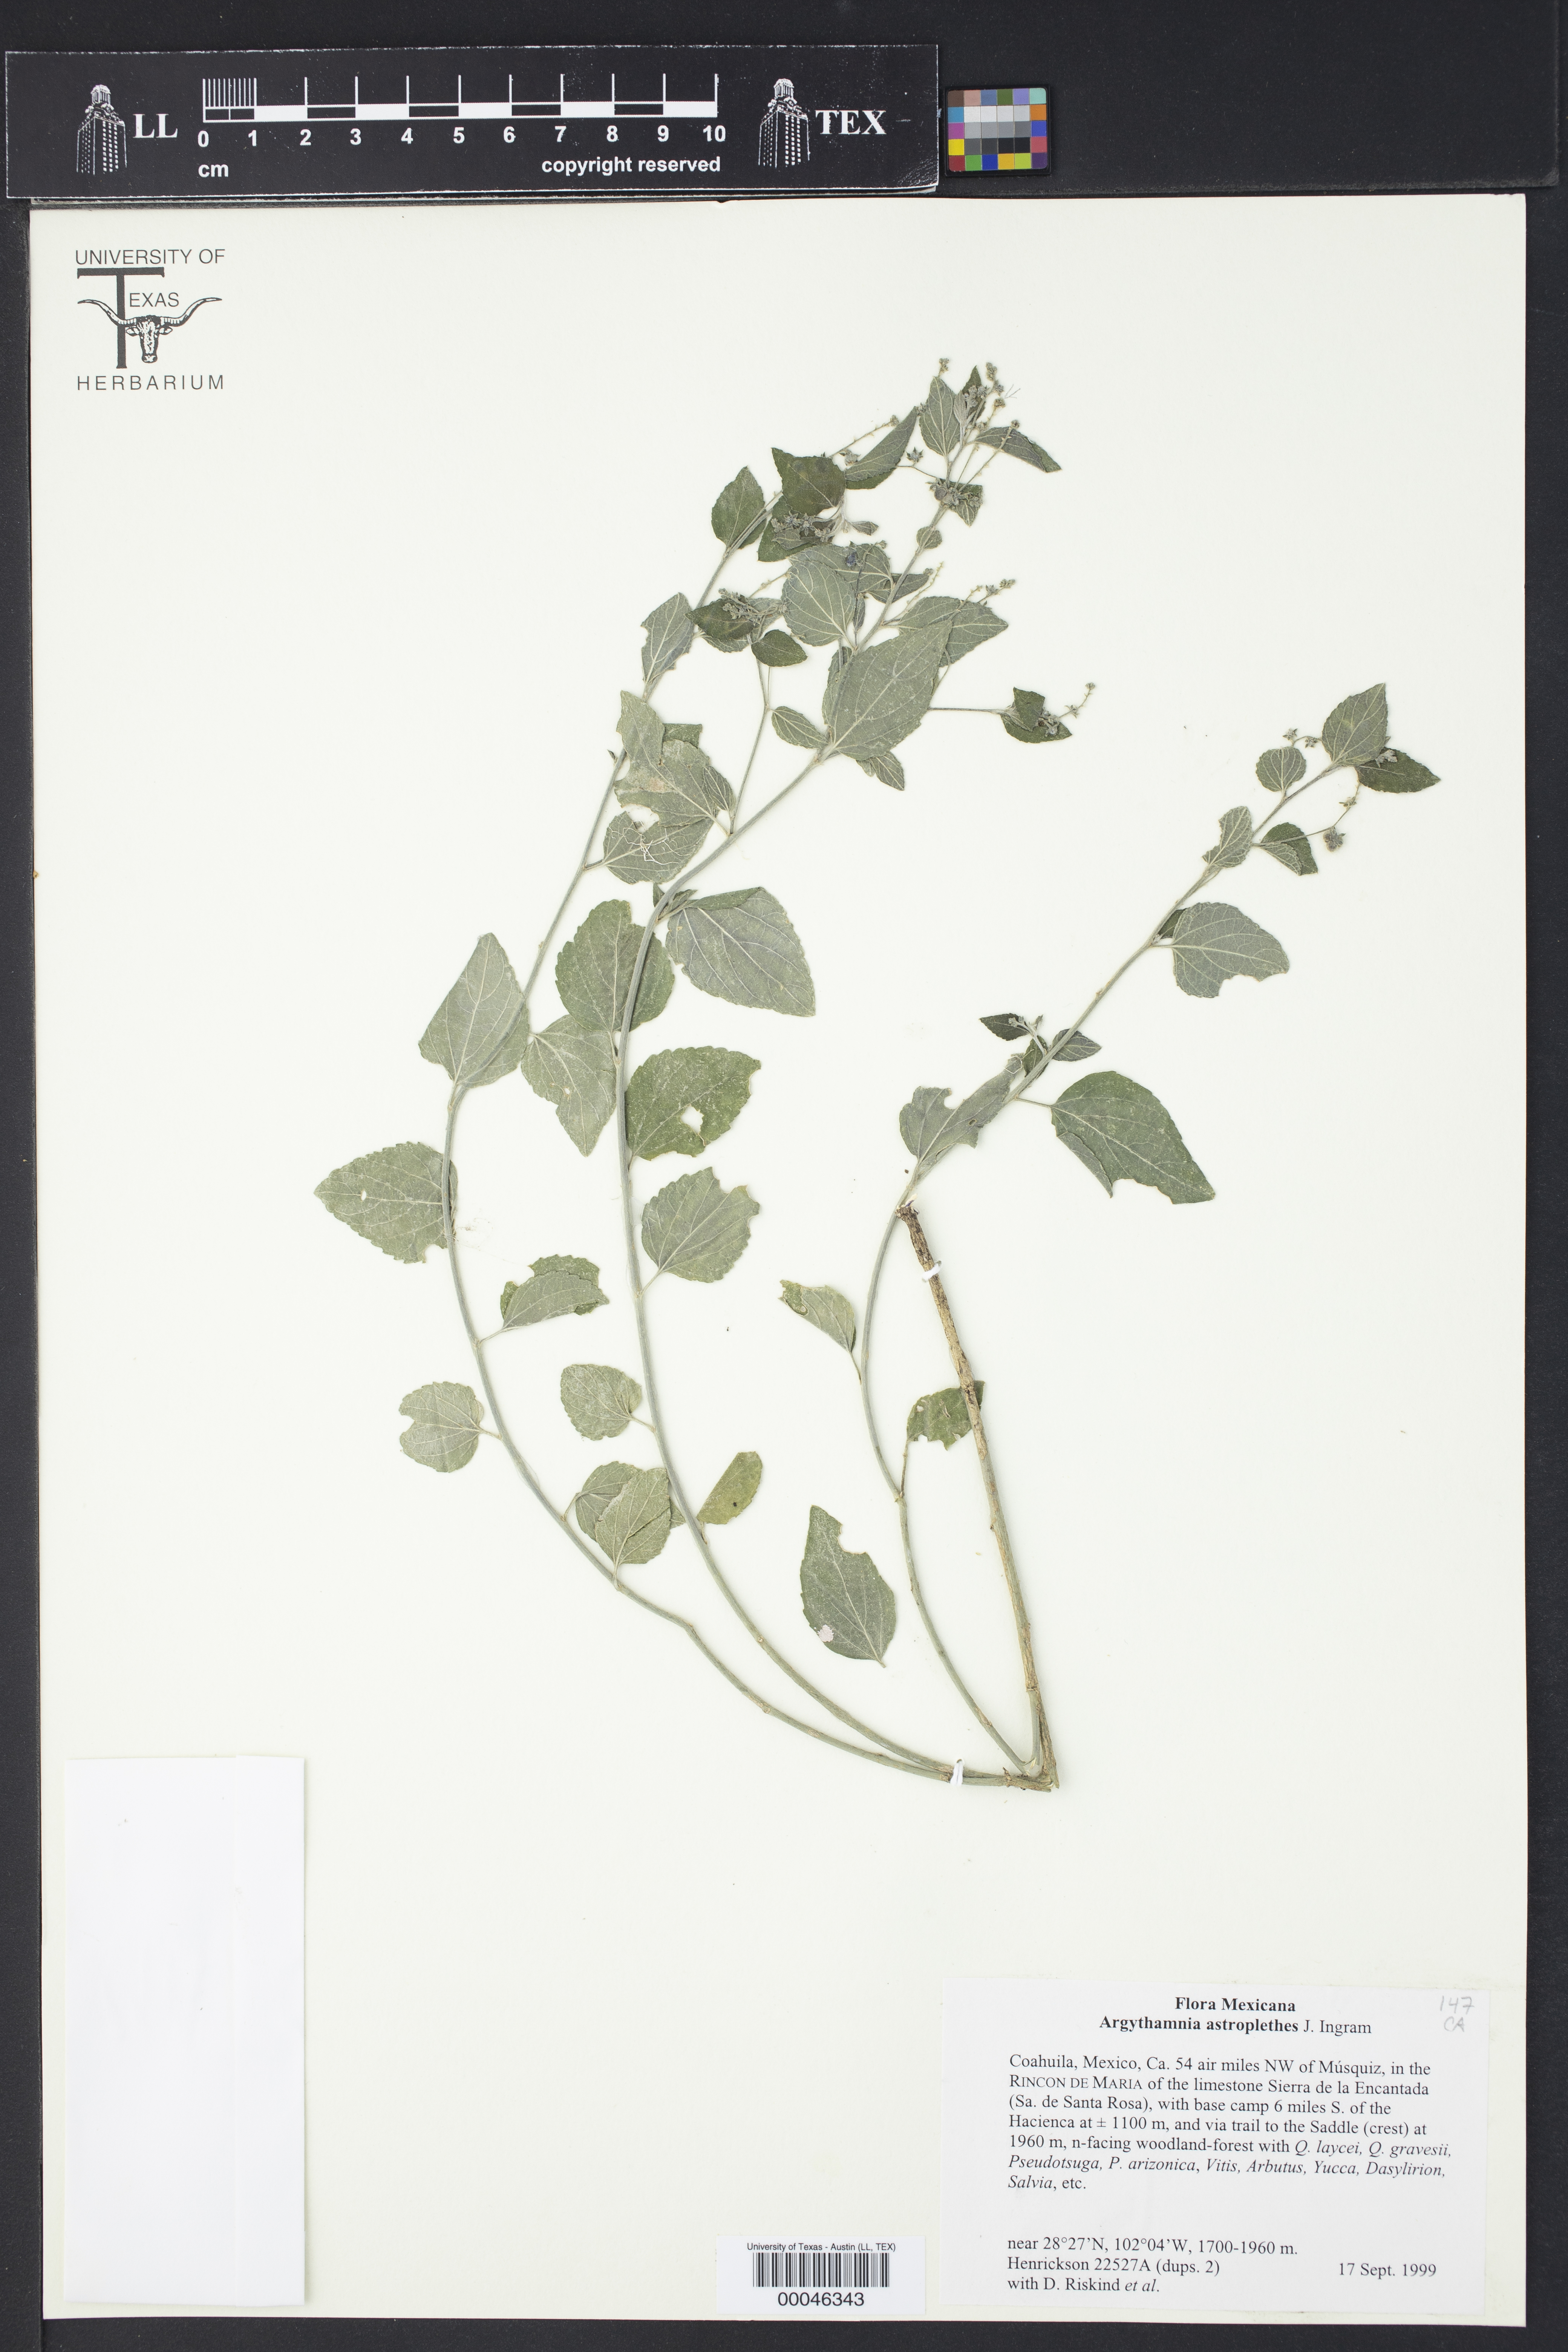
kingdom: Plantae
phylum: Tracheophyta
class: Magnoliopsida
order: Malpighiales
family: Euphorbiaceae
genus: Chiropetalum
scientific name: Chiropetalum astroplethes
